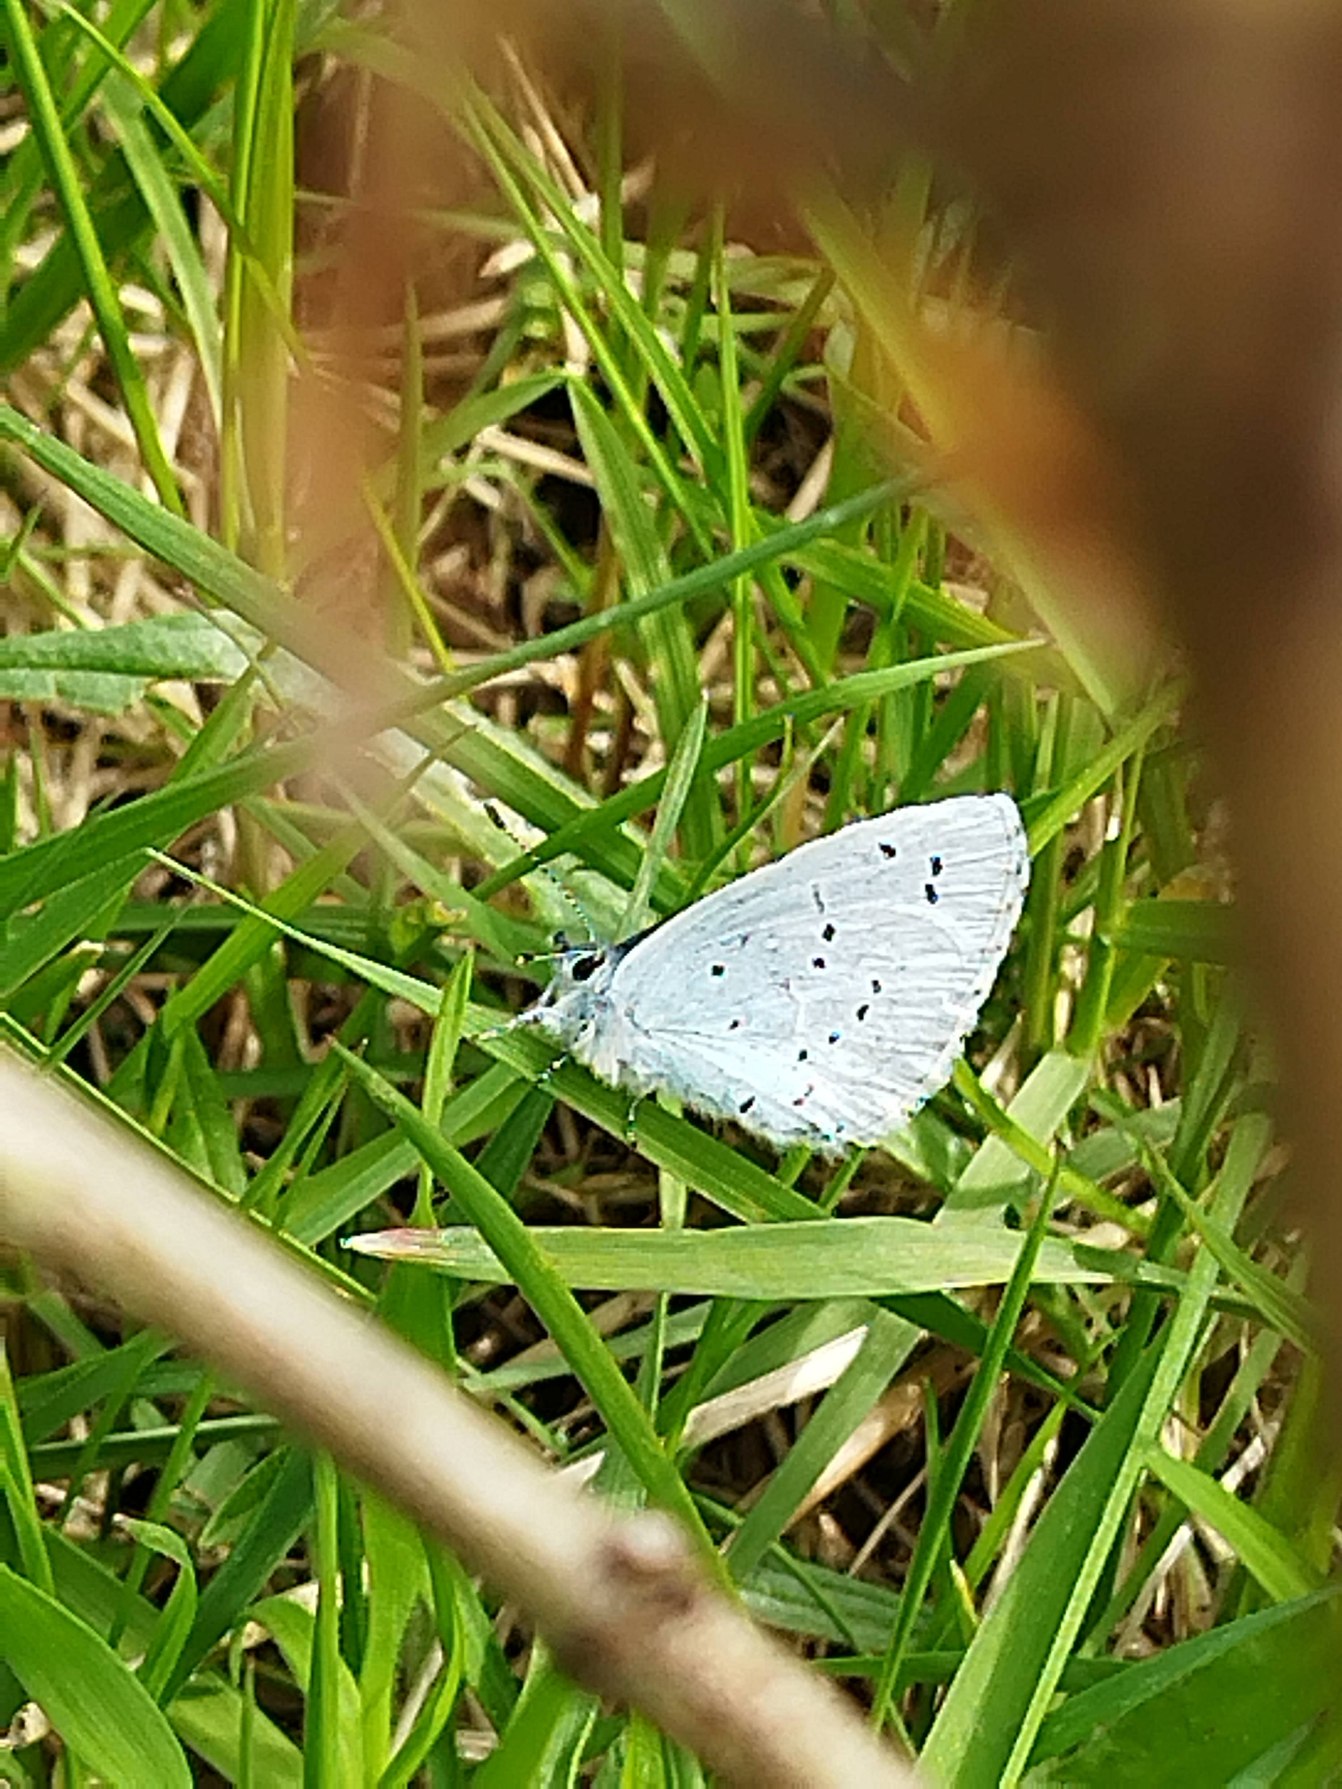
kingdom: Animalia
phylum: Arthropoda
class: Insecta
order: Lepidoptera
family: Lycaenidae
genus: Celastrina
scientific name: Celastrina argiolus
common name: Skovblåfugl
